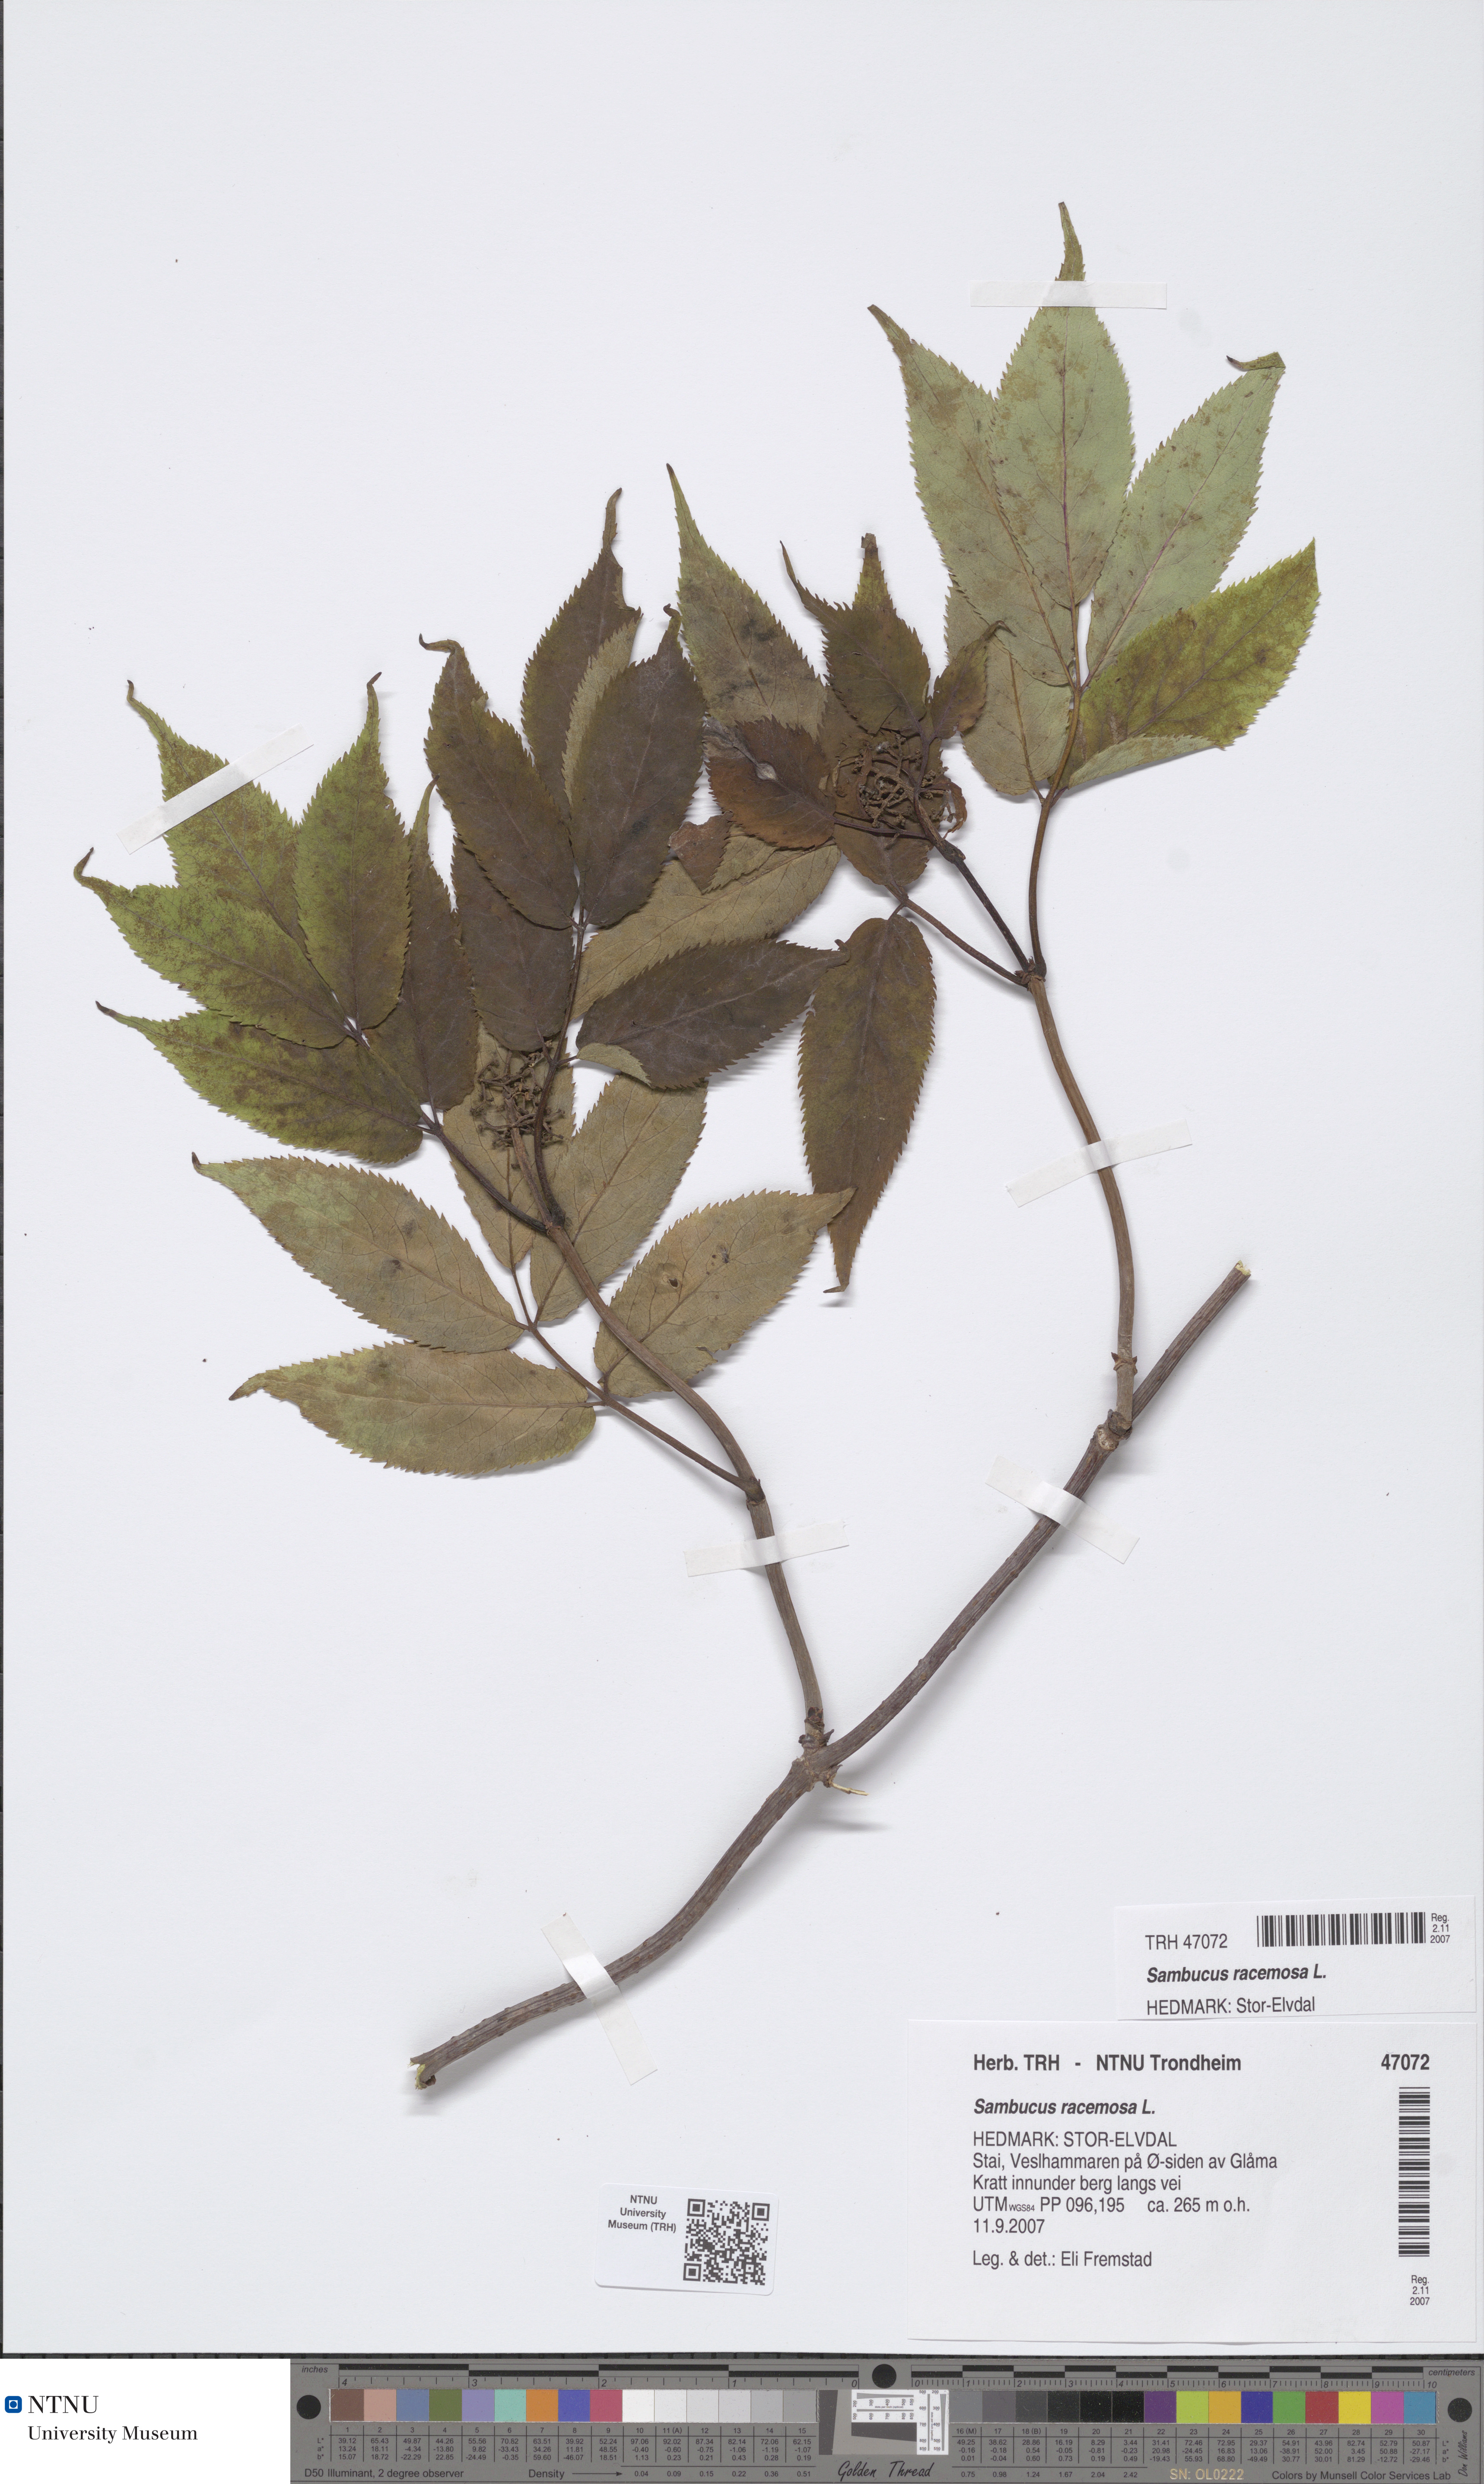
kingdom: Plantae
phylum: Tracheophyta
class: Magnoliopsida
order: Dipsacales
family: Viburnaceae
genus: Sambucus
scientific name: Sambucus racemosa
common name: Red-berried elder
